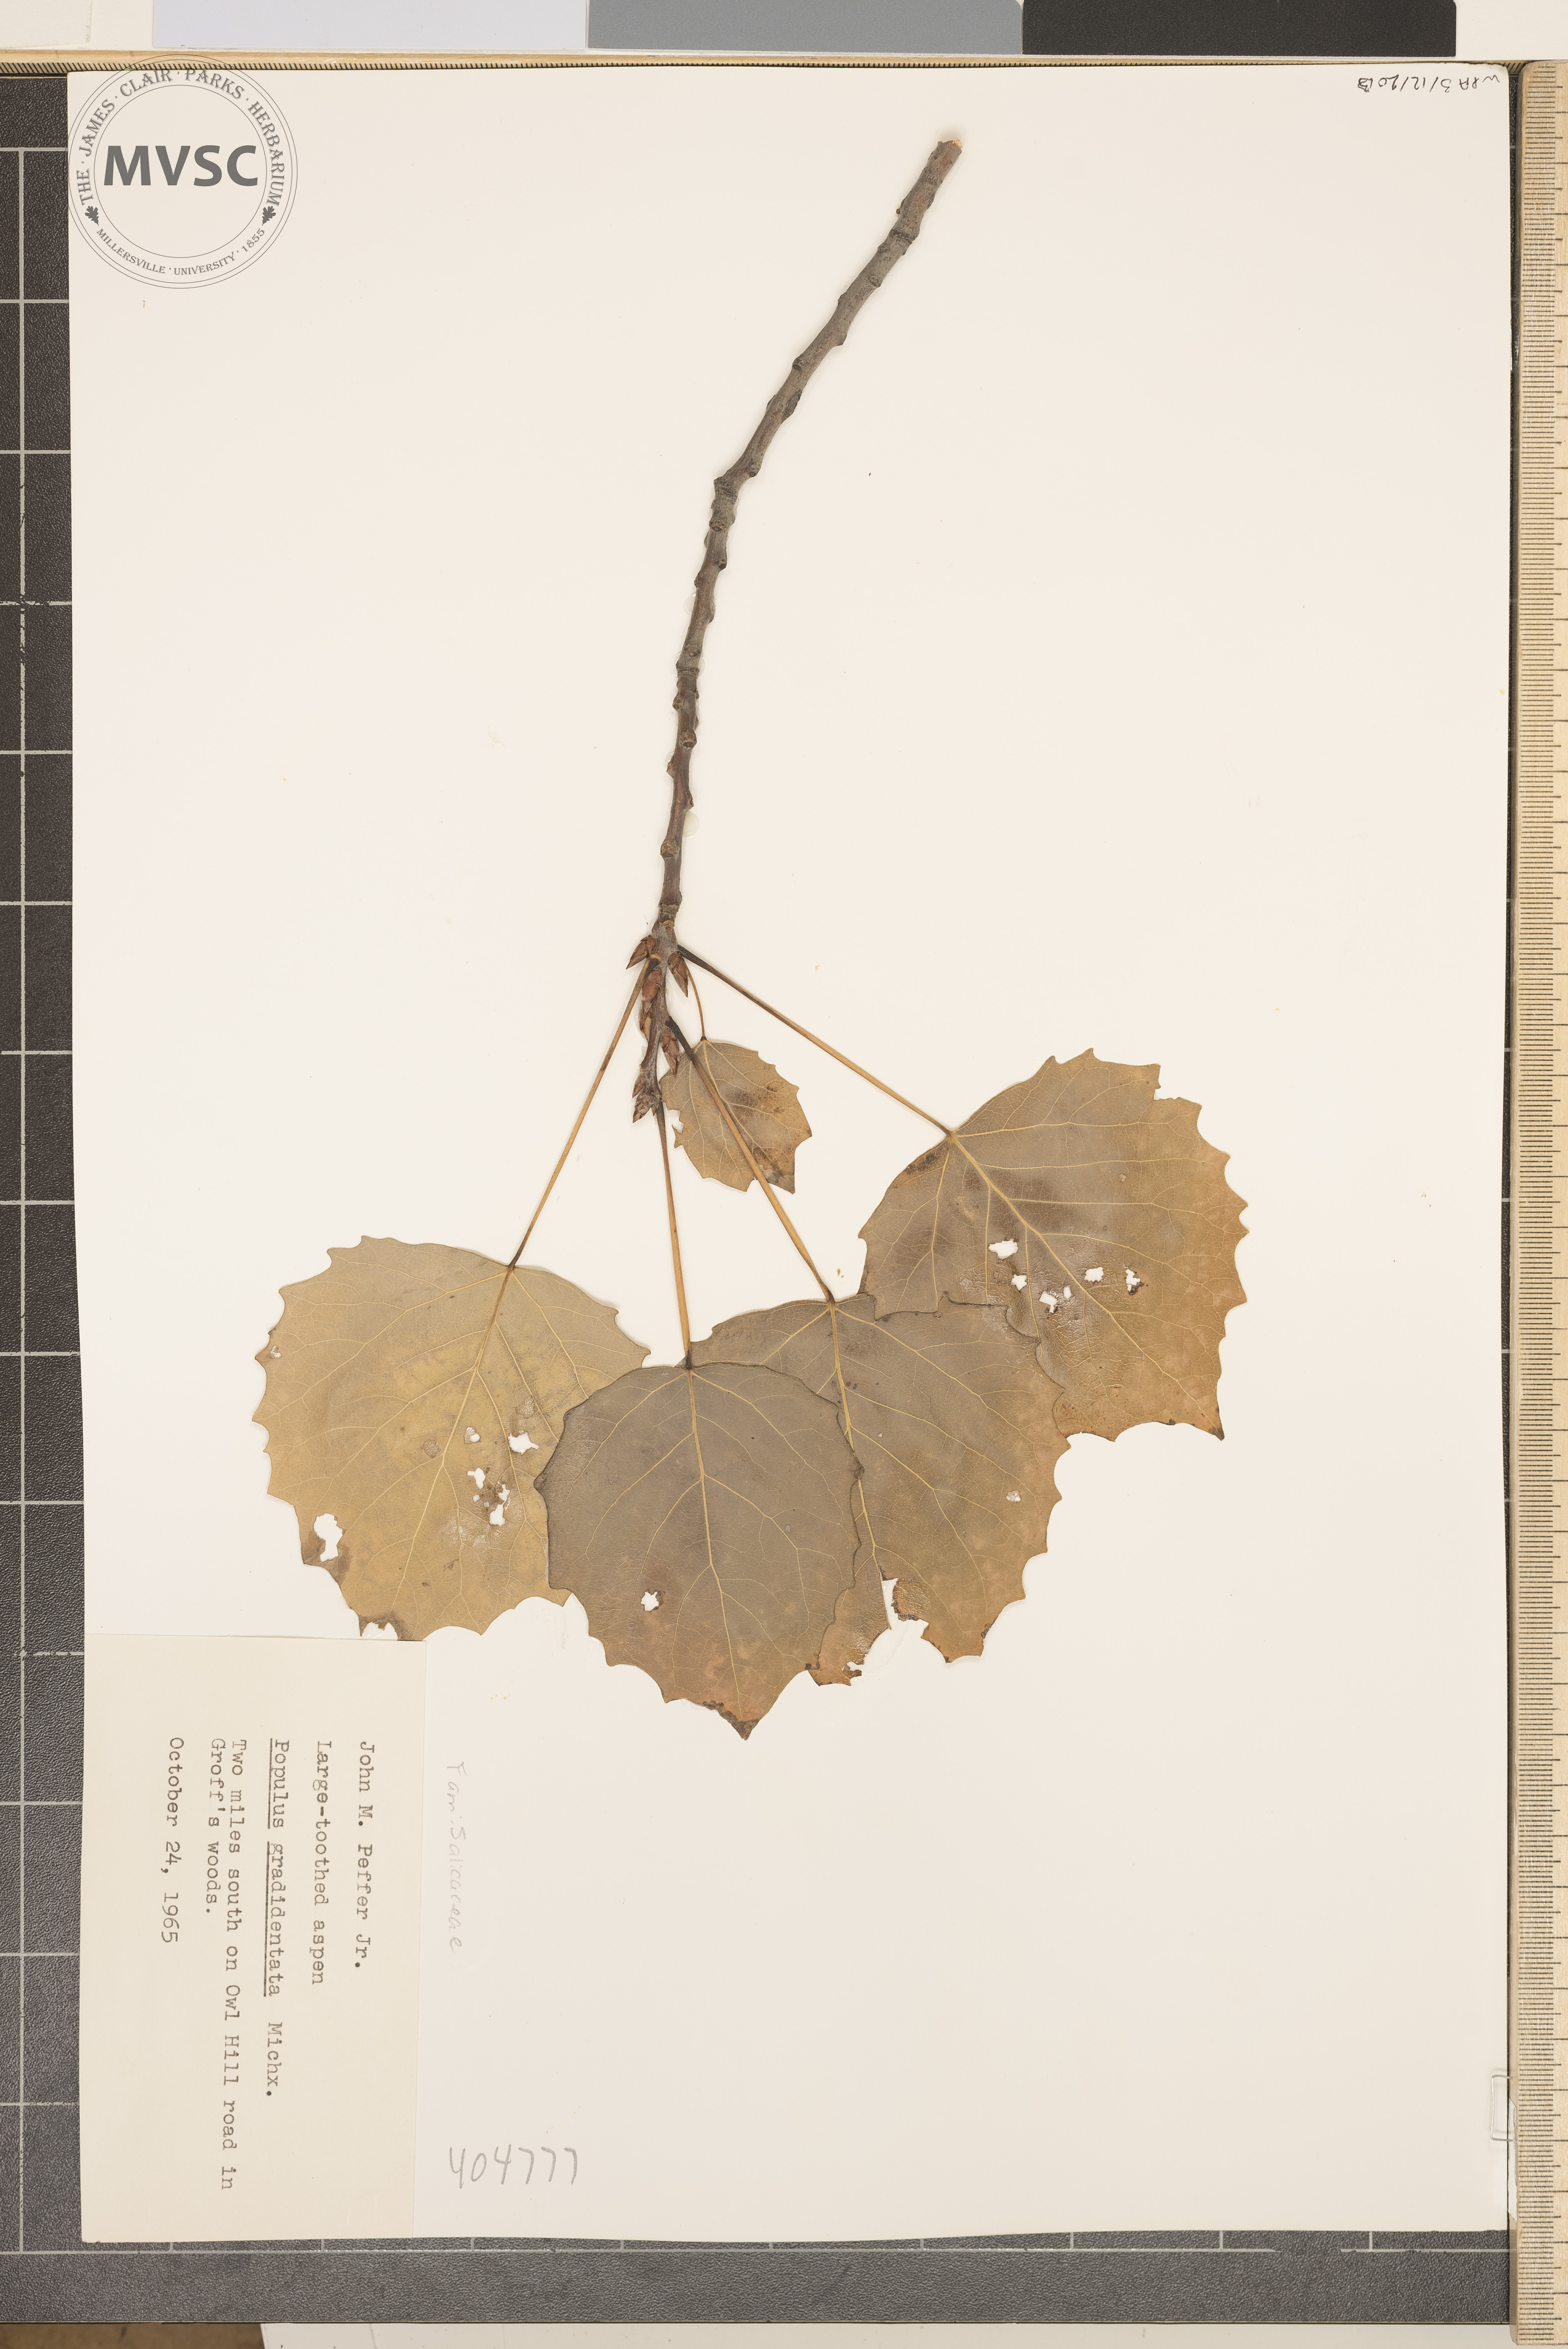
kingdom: Plantae
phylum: Tracheophyta
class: Magnoliopsida
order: Malpighiales
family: Salicaceae
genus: Populus
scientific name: Populus grandidentata
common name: Large-toothed aspen
